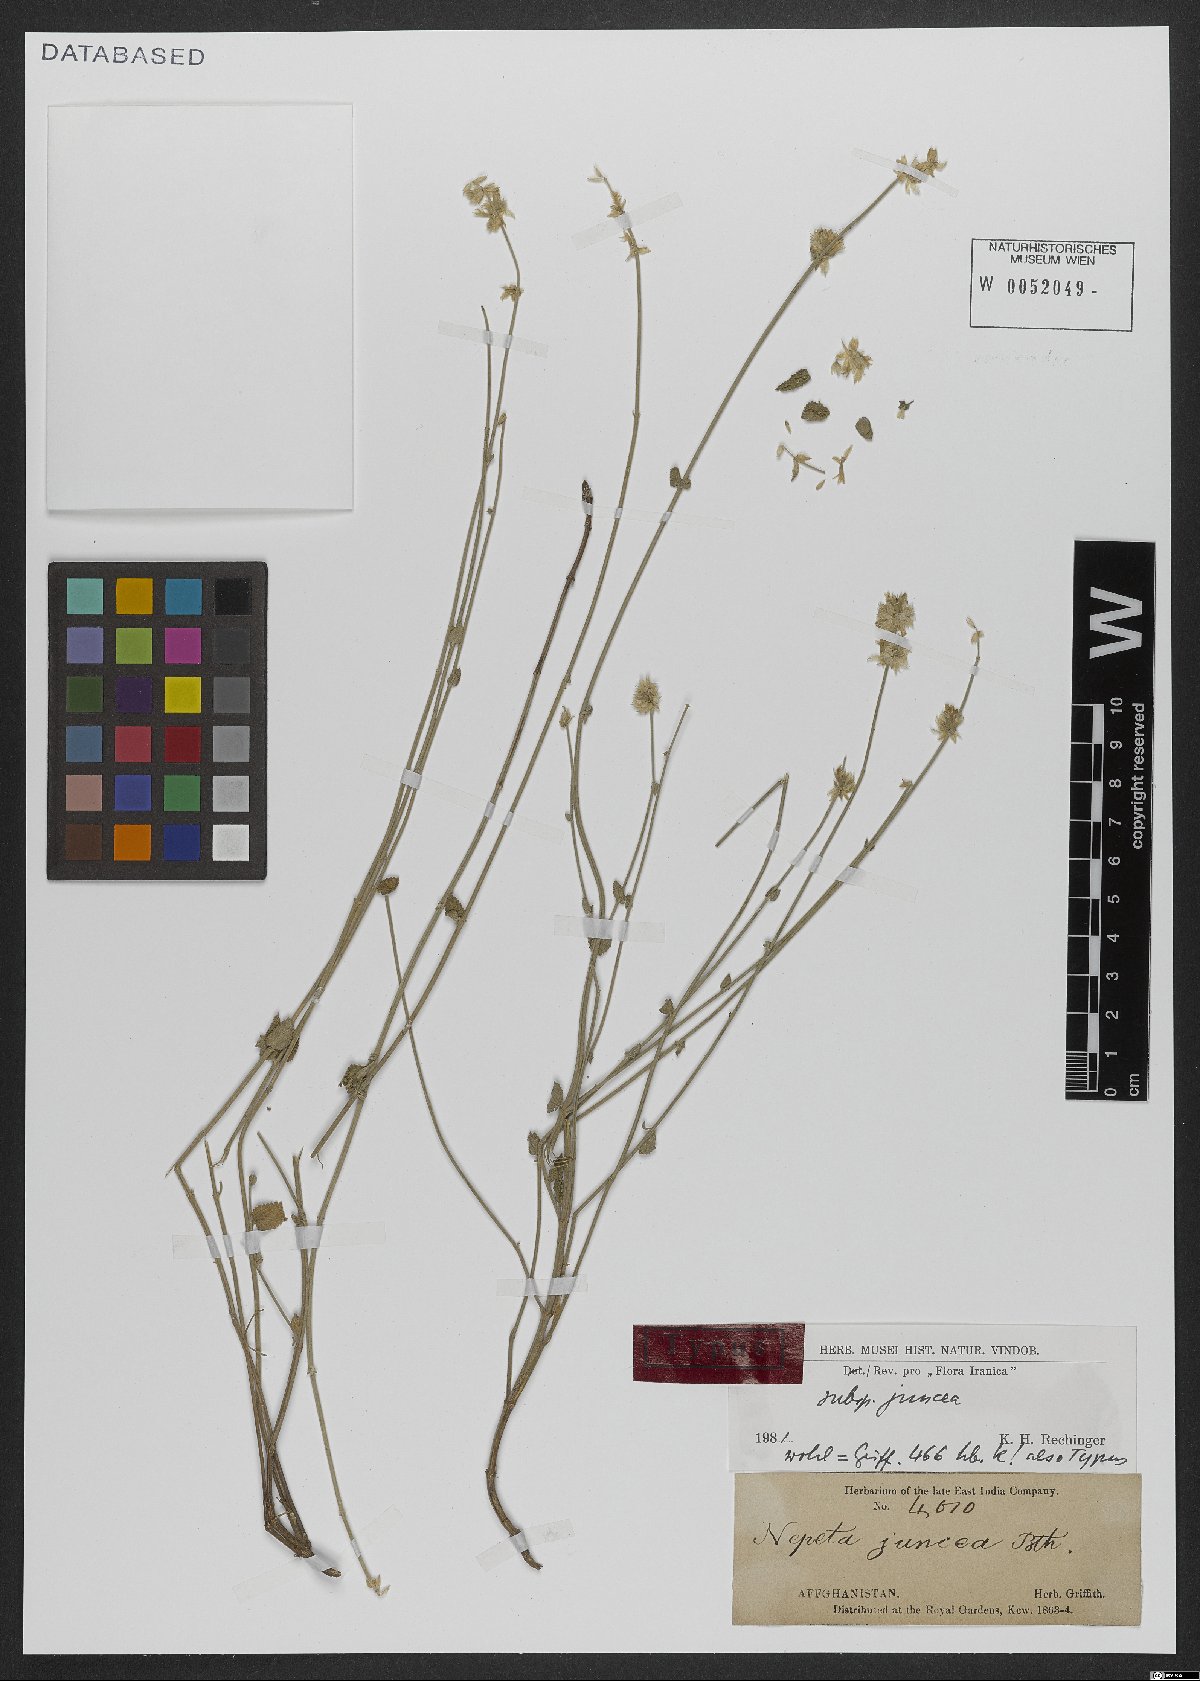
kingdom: Plantae
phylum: Tracheophyta
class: Magnoliopsida
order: Lamiales
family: Lamiaceae
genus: Nepeta
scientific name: Nepeta juncea
